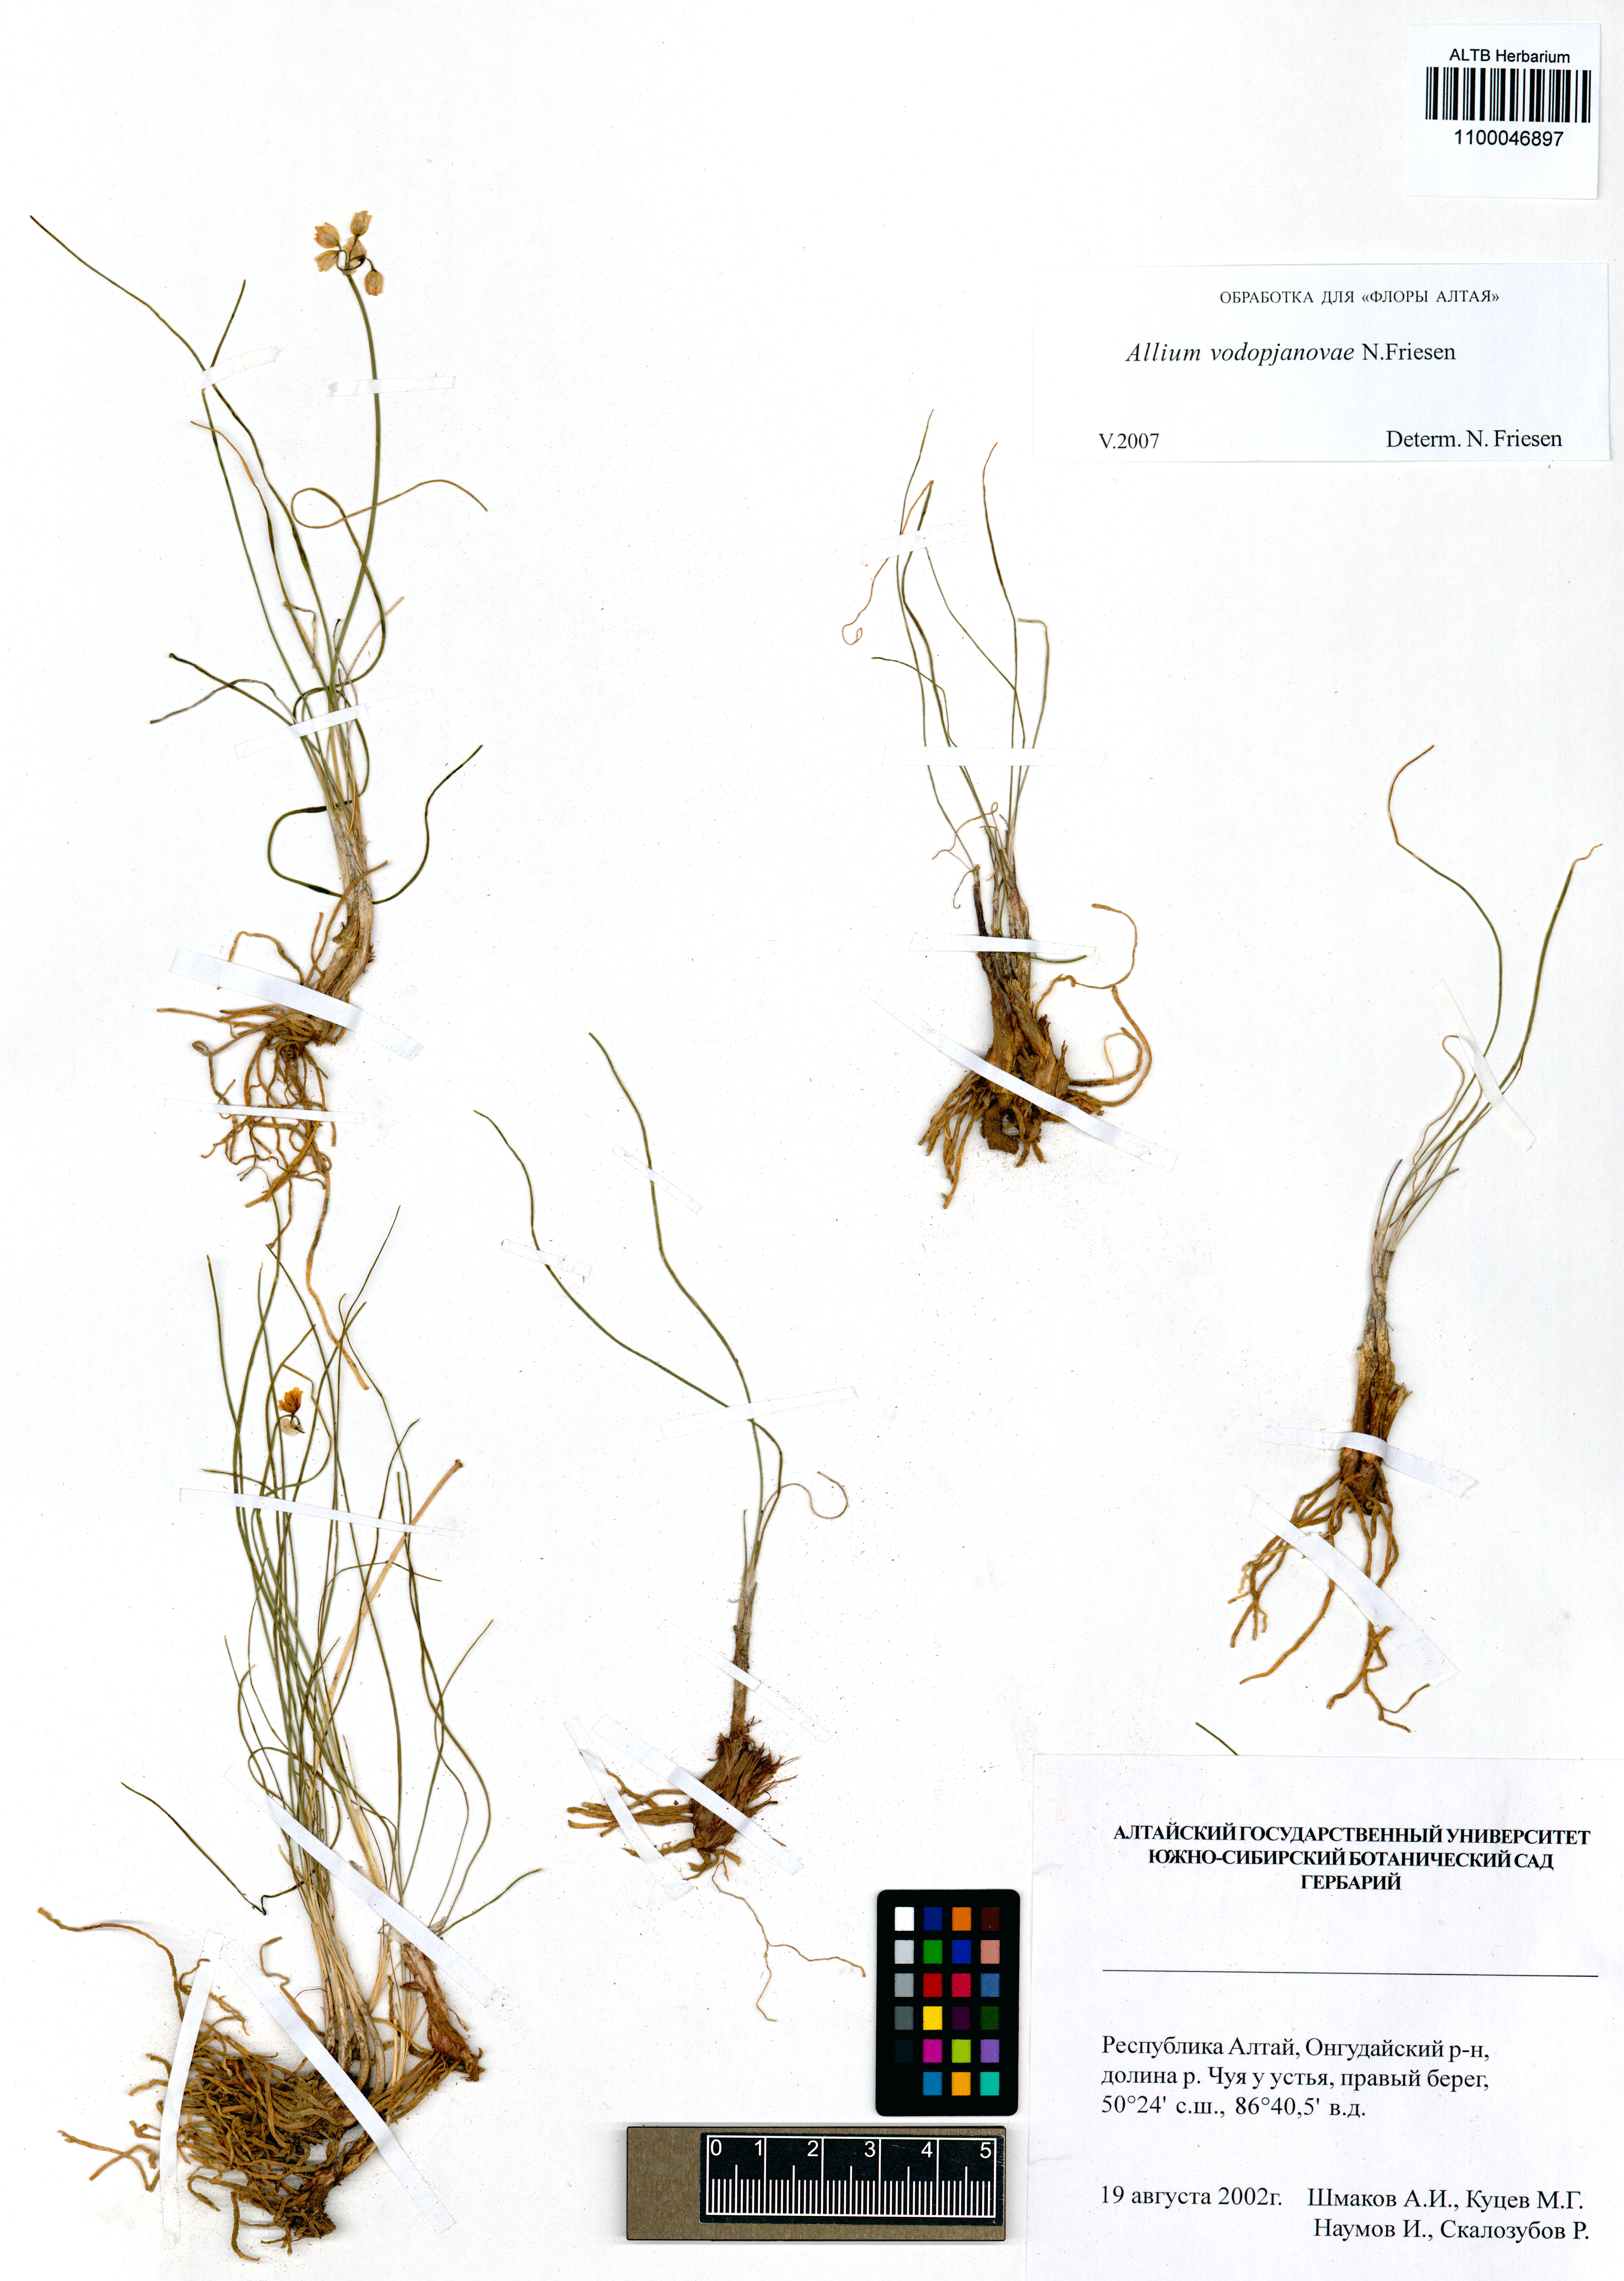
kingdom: Plantae
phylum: Tracheophyta
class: Liliopsida
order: Asparagales
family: Amaryllidaceae
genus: Allium
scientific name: Allium vodopjanovae
